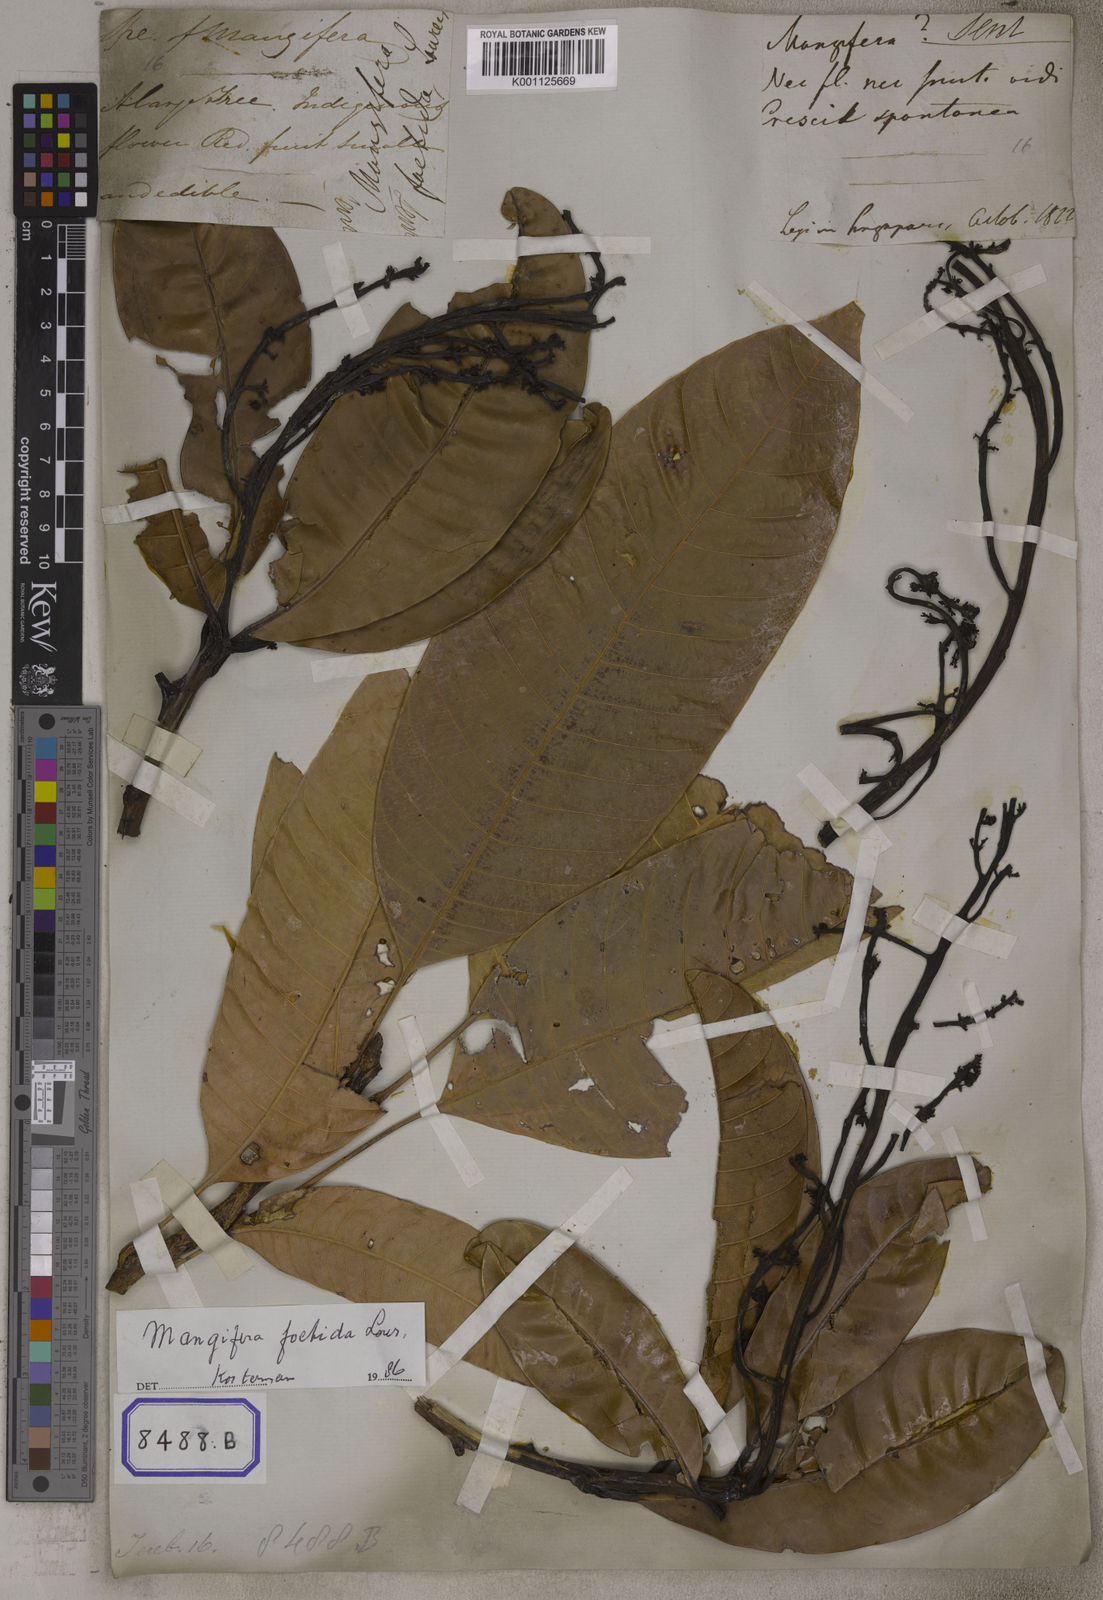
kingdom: Plantae
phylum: Tracheophyta
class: Magnoliopsida
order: Sapindales
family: Anacardiaceae
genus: Mangifera
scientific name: Mangifera foetida
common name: Horse mango
